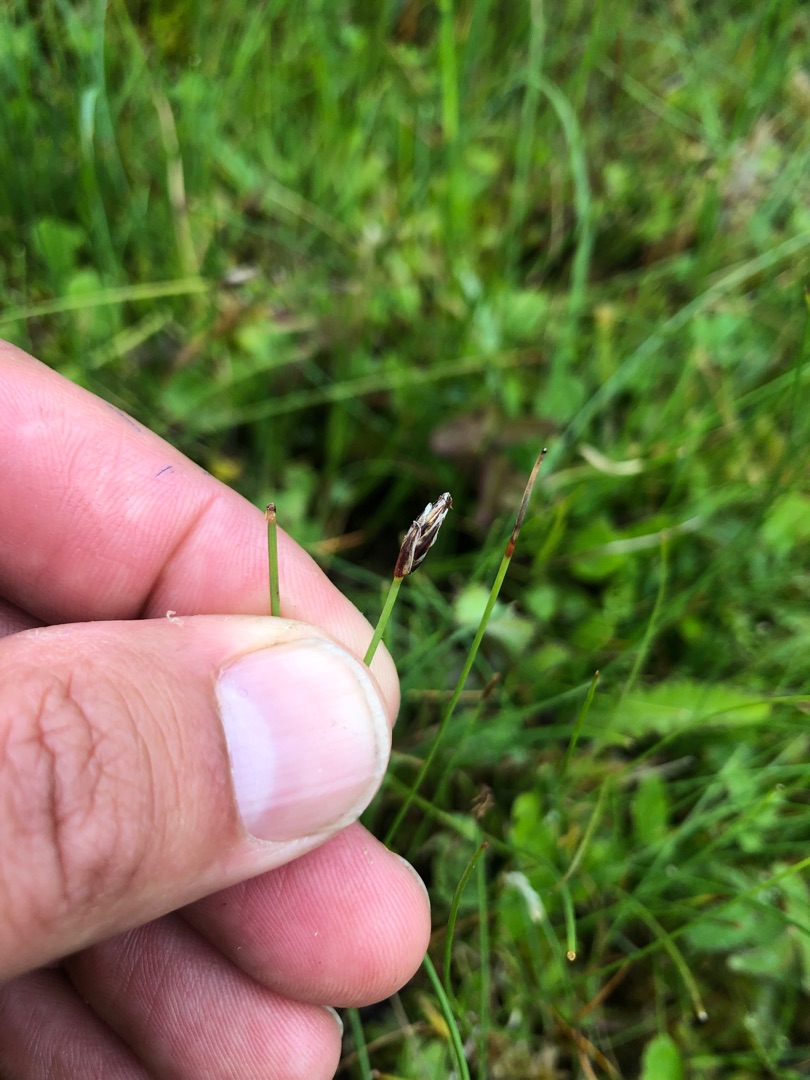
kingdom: Plantae
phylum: Tracheophyta
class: Liliopsida
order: Poales
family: Cyperaceae
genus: Eleocharis
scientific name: Eleocharis quinqueflora
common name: Fåblomstret kogleaks
